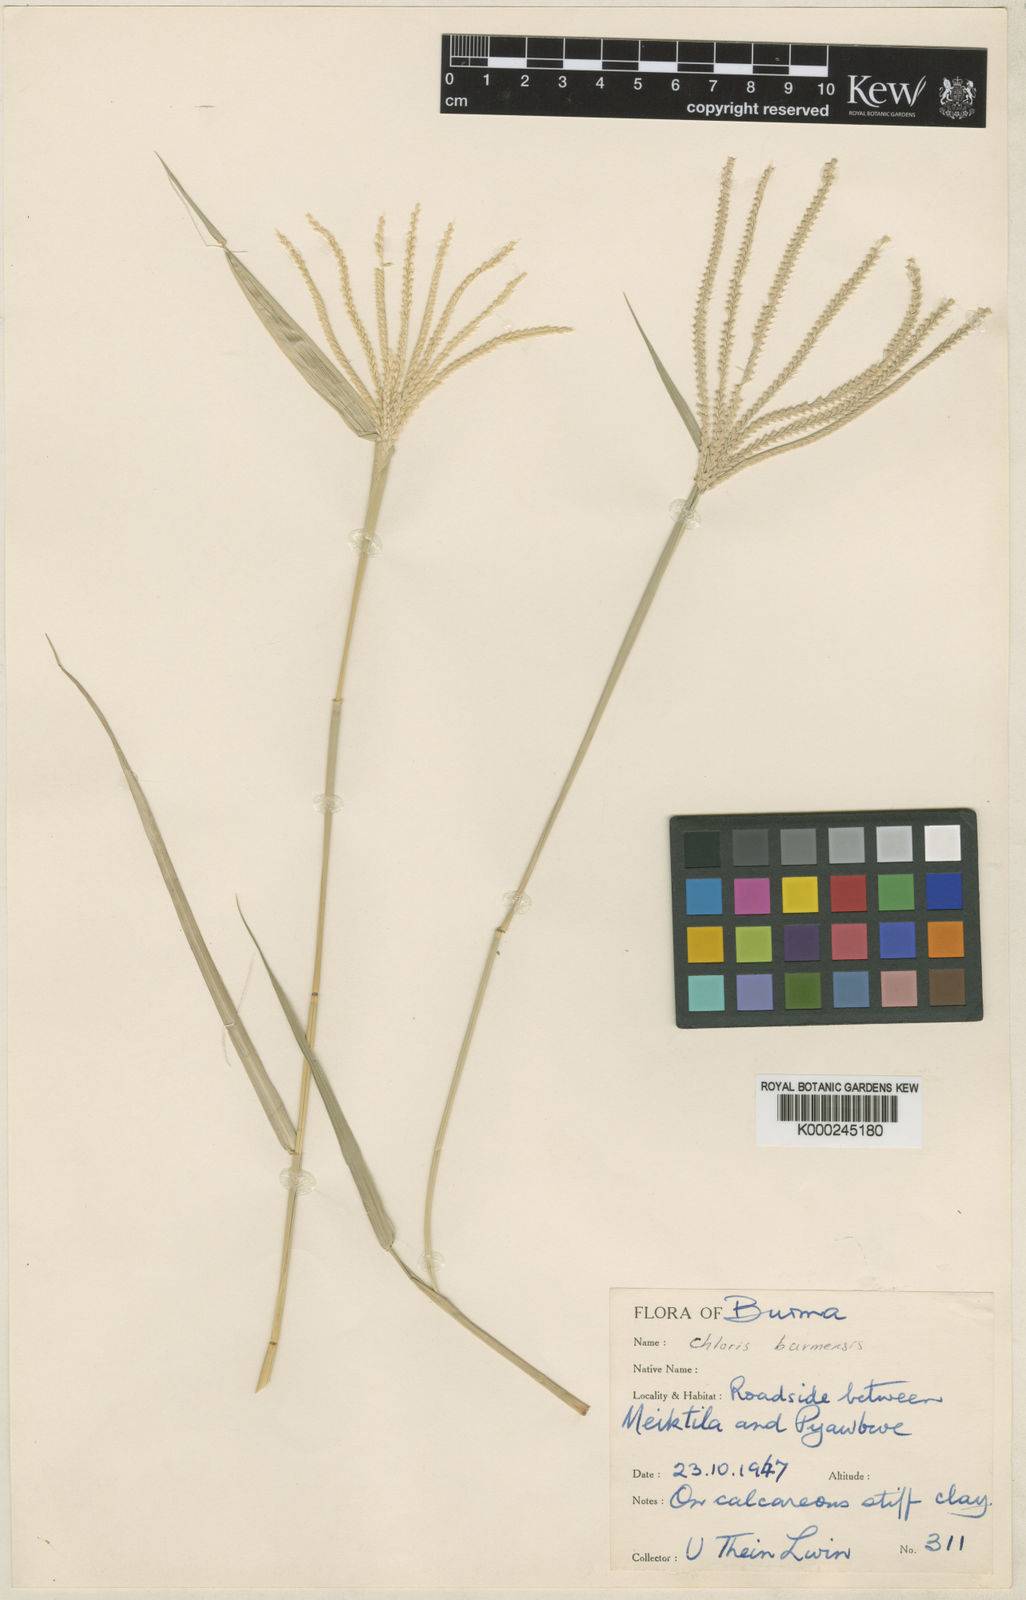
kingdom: Plantae
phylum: Tracheophyta
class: Liliopsida
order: Poales
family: Poaceae
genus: Chloris
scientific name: Chloris burmensis
